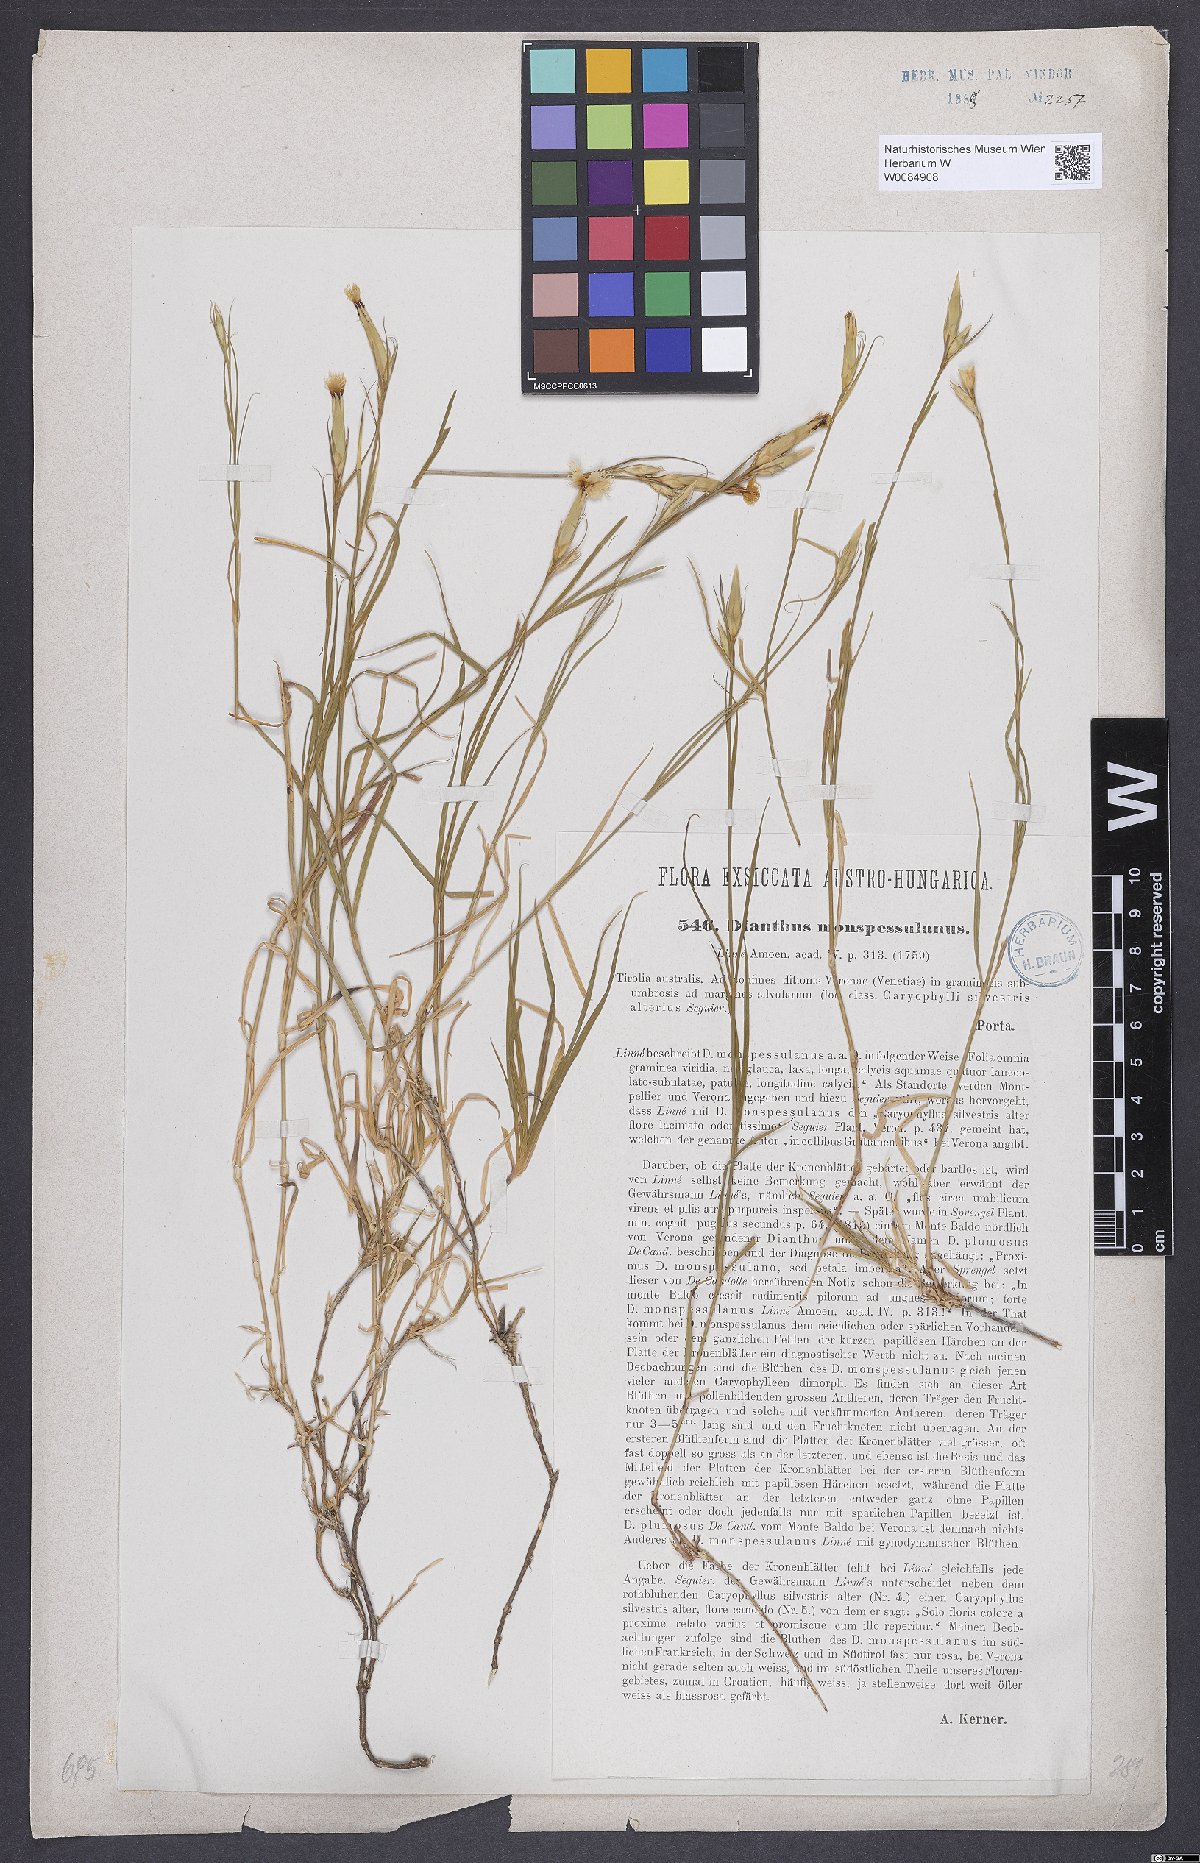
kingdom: Plantae
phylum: Tracheophyta
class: Magnoliopsida
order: Caryophyllales
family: Caryophyllaceae
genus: Dianthus
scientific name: Dianthus hyssopifolius
